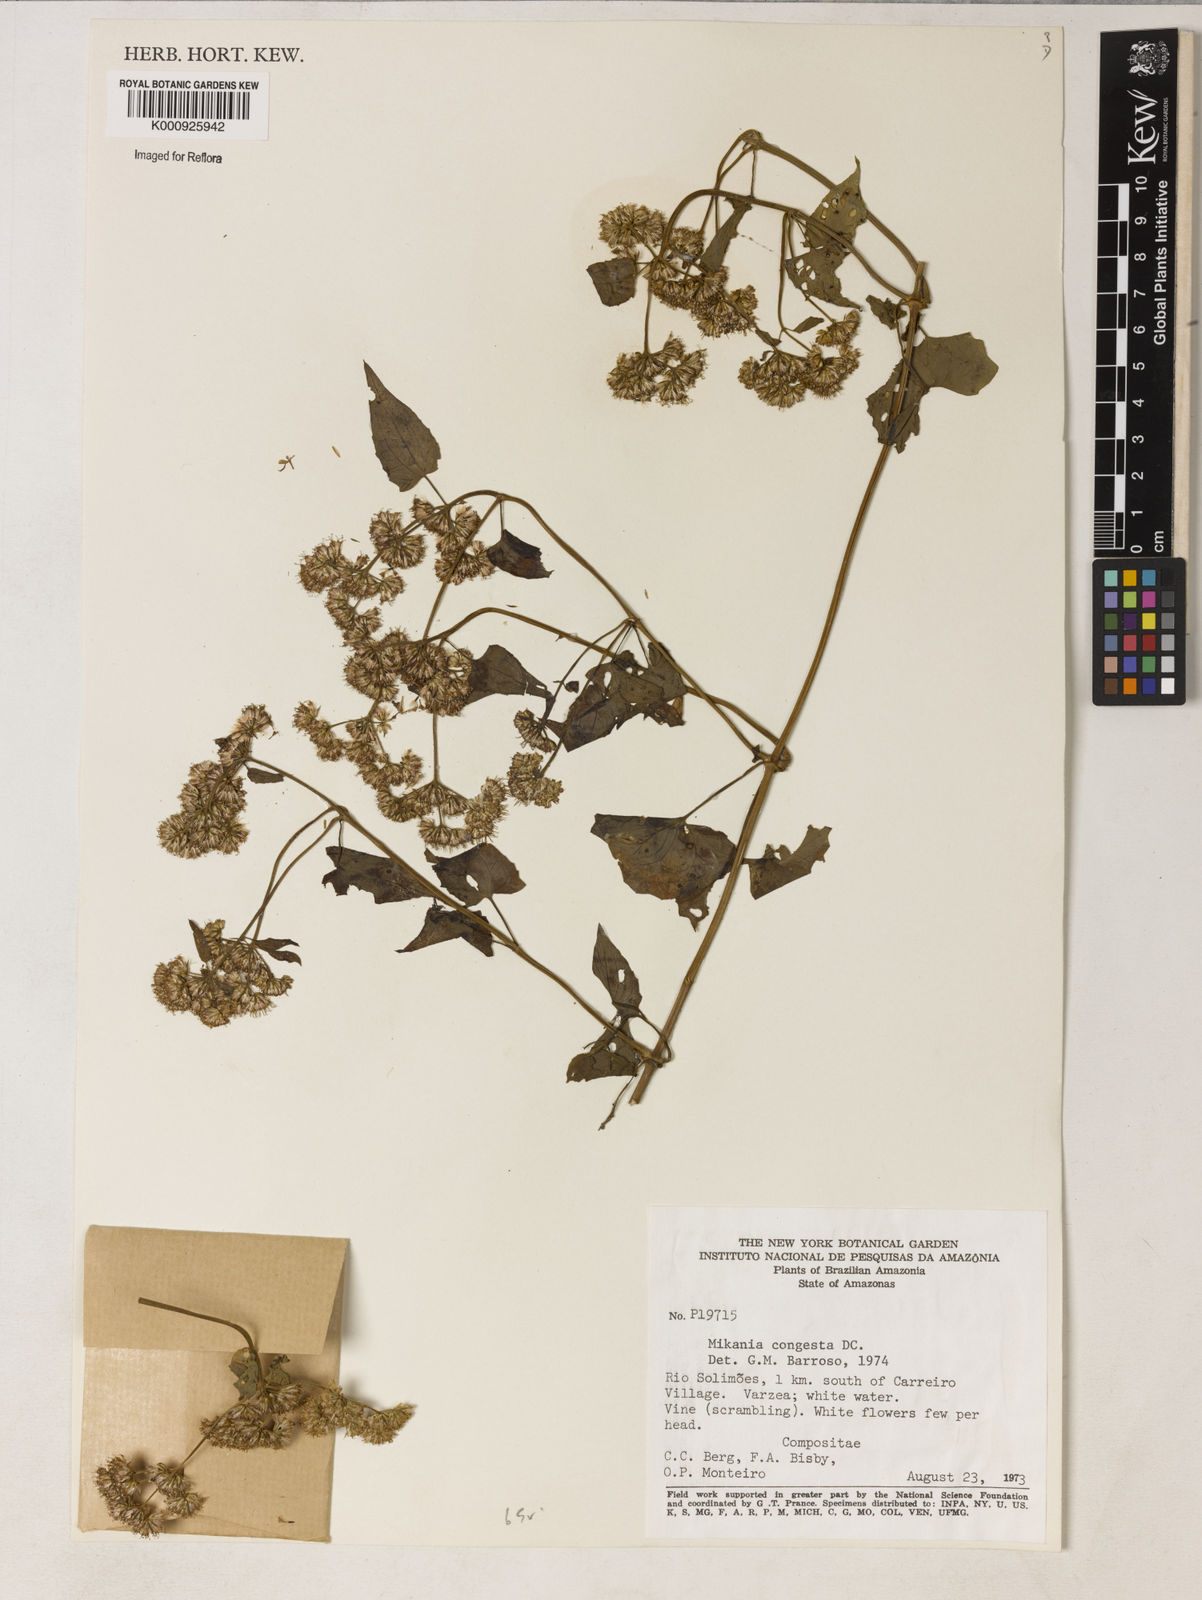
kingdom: Plantae
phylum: Tracheophyta
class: Magnoliopsida
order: Asterales
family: Asteraceae
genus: Mikania
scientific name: Mikania congesta
